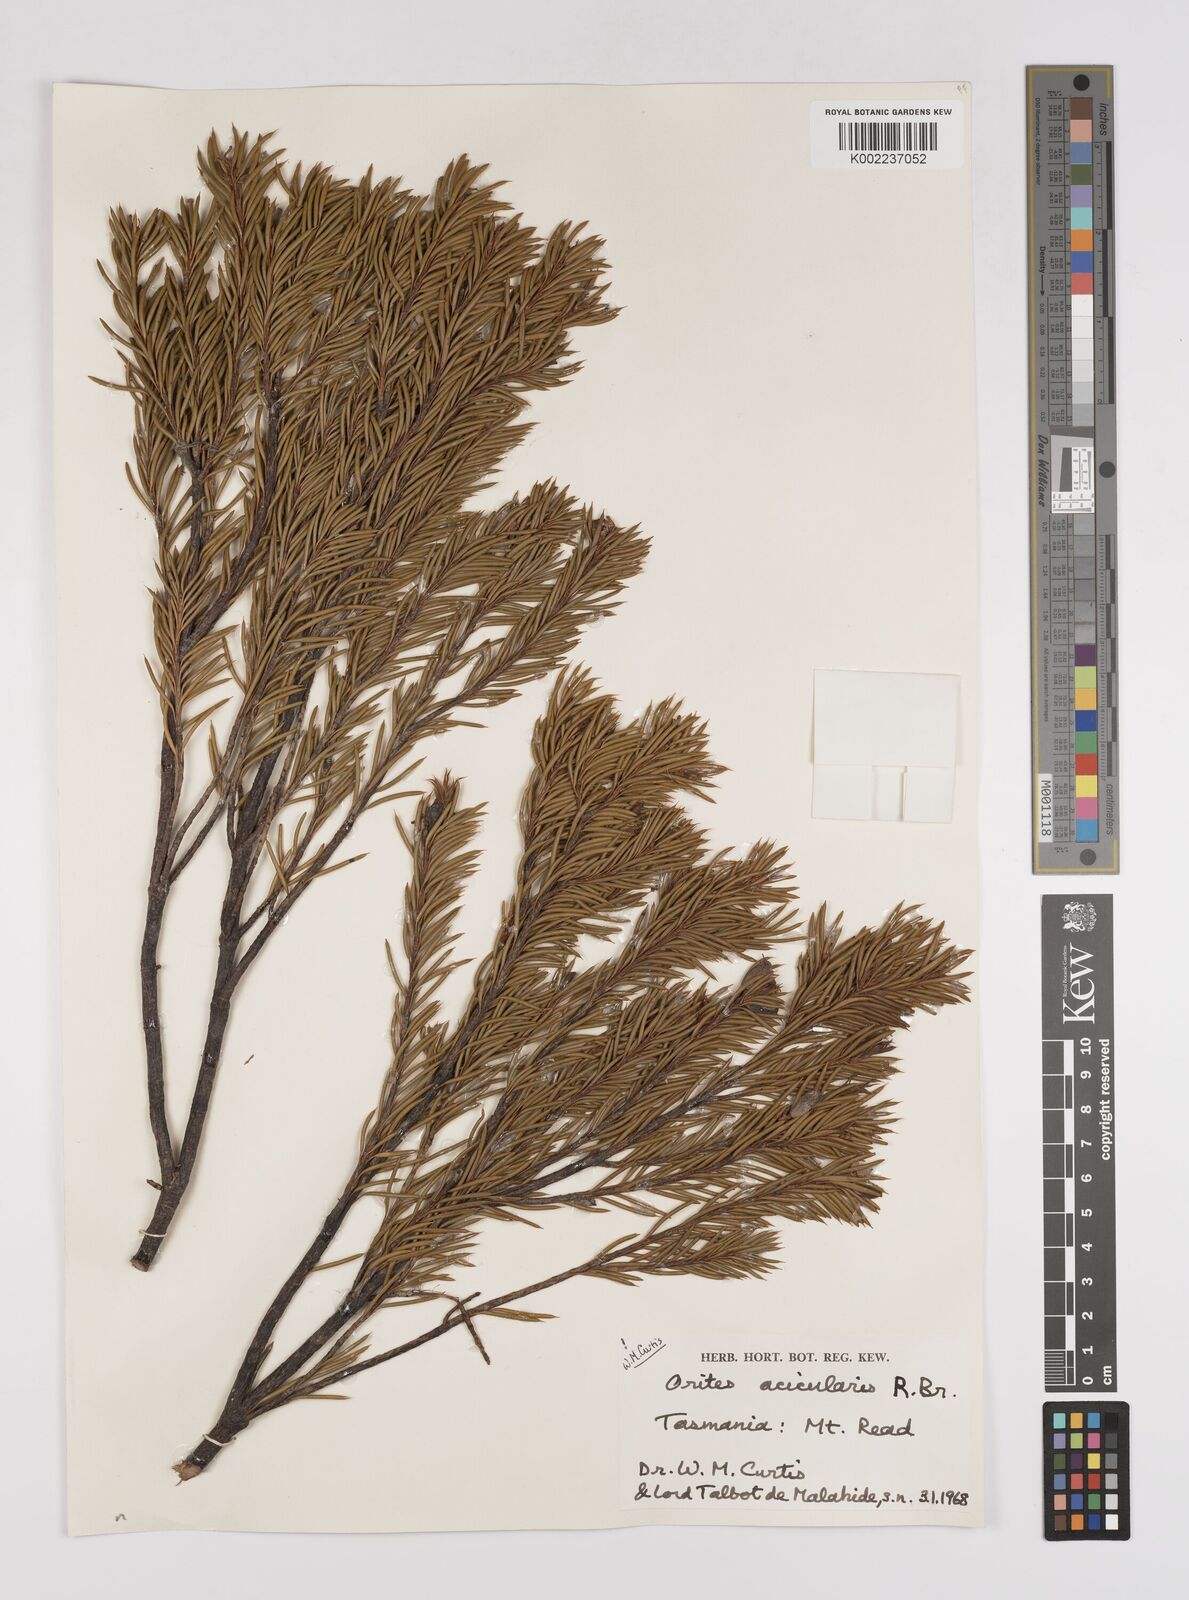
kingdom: Plantae
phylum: Tracheophyta
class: Magnoliopsida
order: Proteales
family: Proteaceae
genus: Orites
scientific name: Orites acicularis
